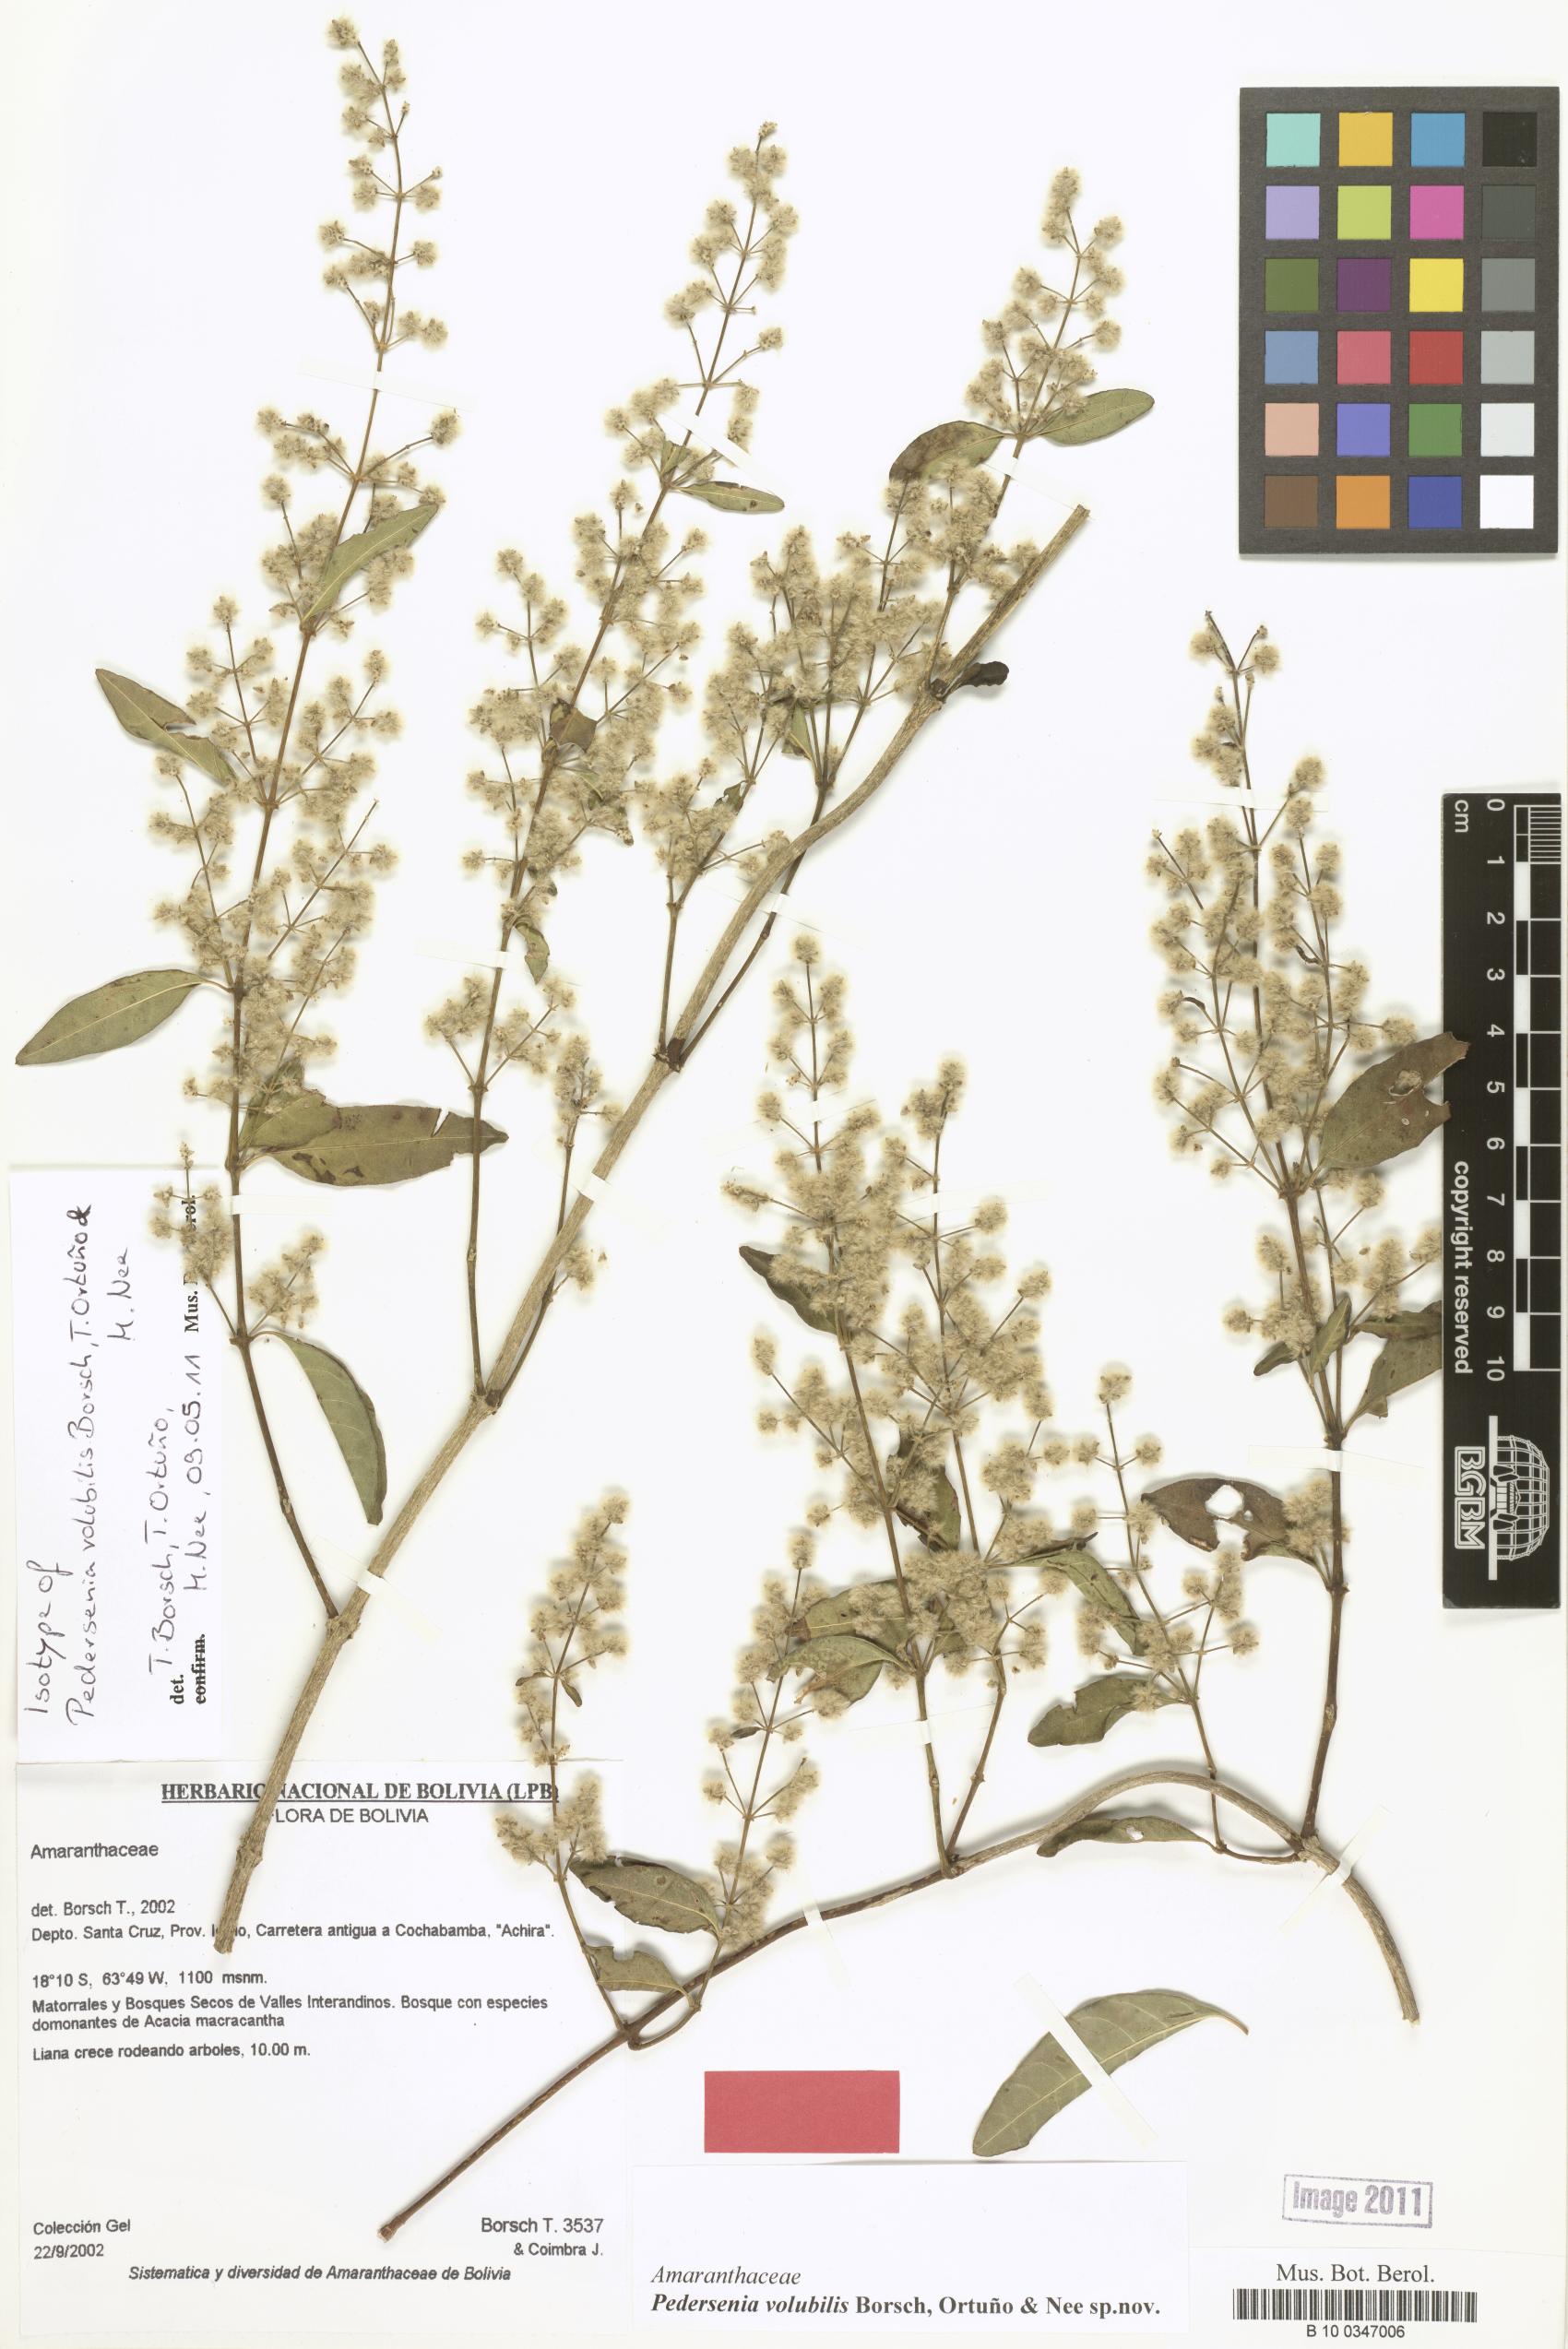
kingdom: Plantae
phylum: Tracheophyta
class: Magnoliopsida
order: Caryophyllales
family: Amaranthaceae
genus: Pedersenia
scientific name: Pedersenia volubilis
